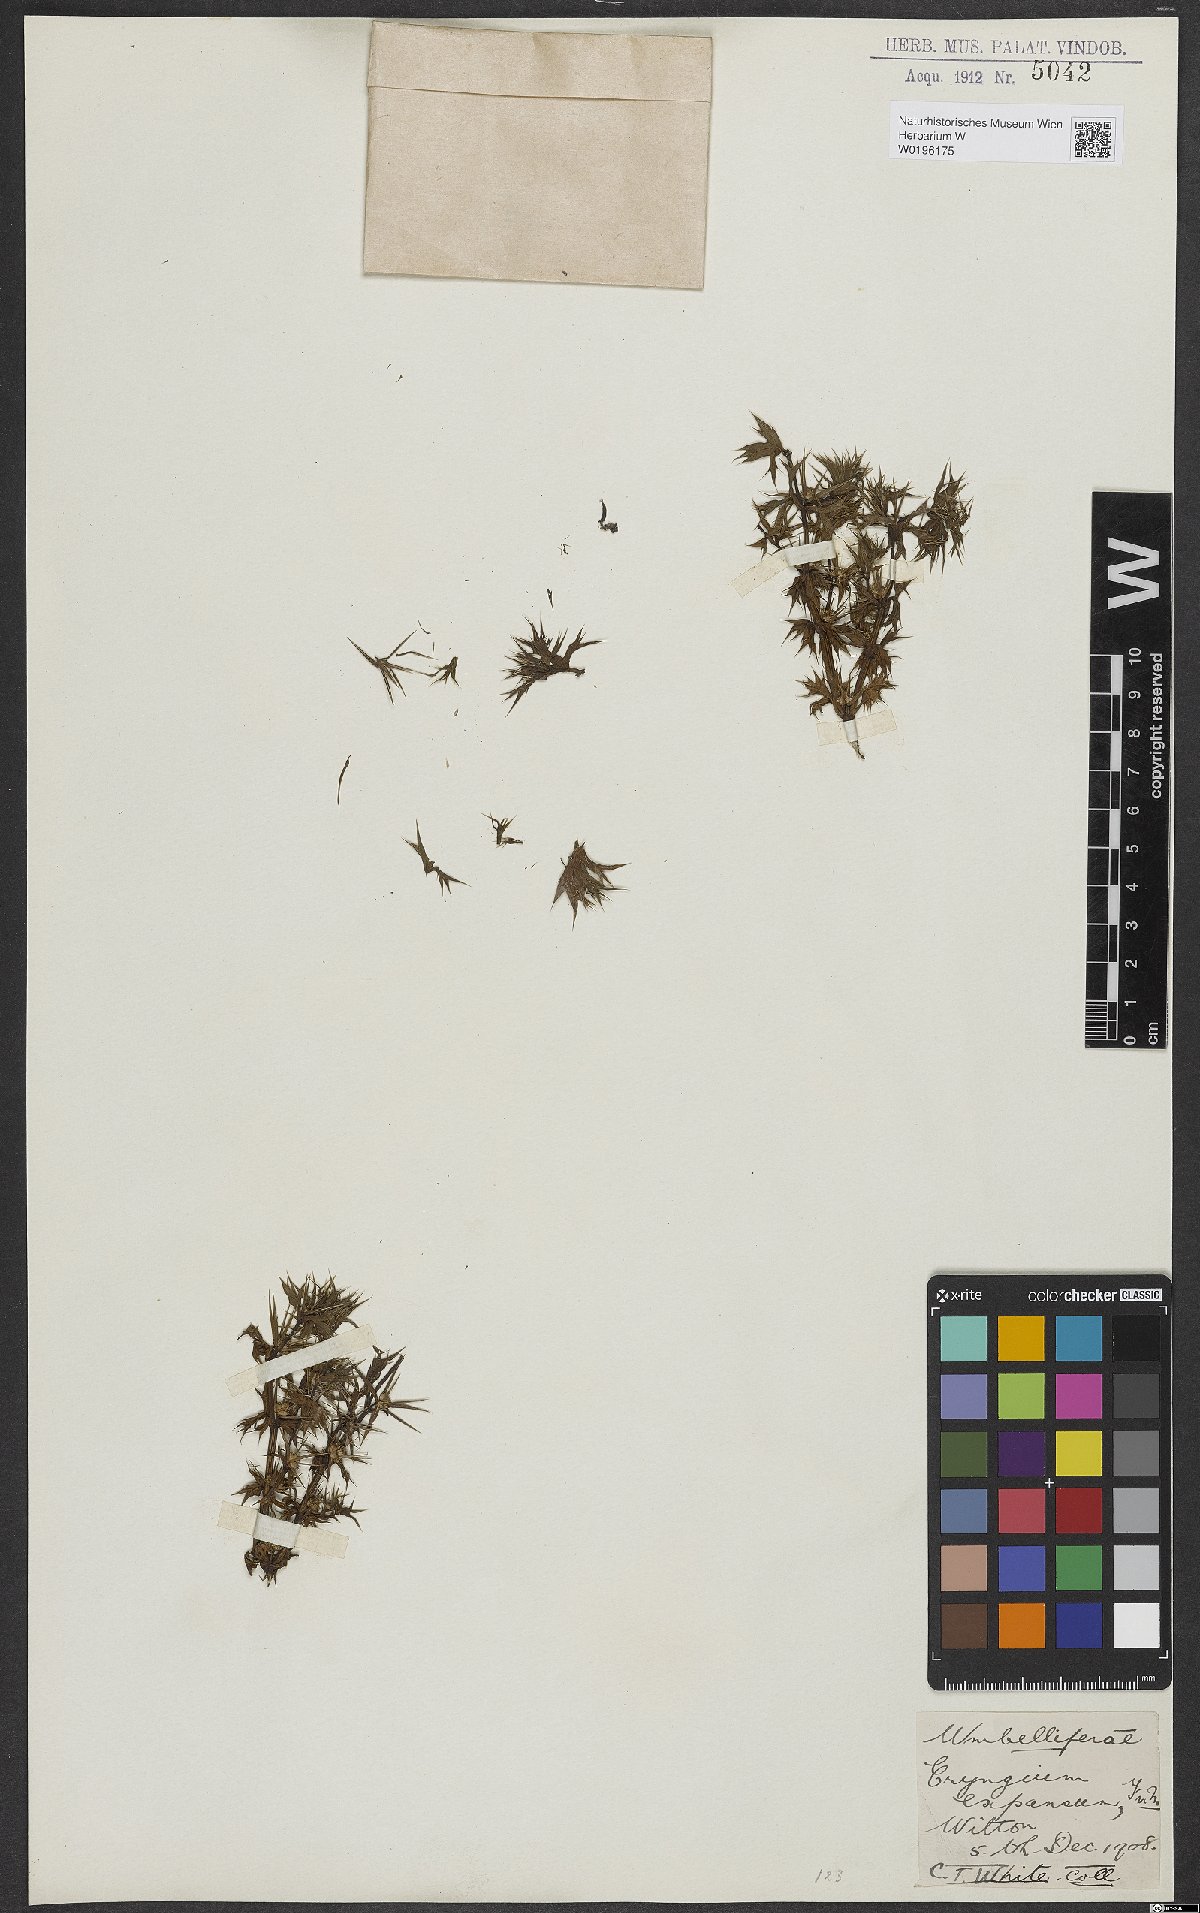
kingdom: Plantae
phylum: Tracheophyta
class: Magnoliopsida
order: Apiales
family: Apiaceae
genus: Eryngium
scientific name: Eryngium expansum
